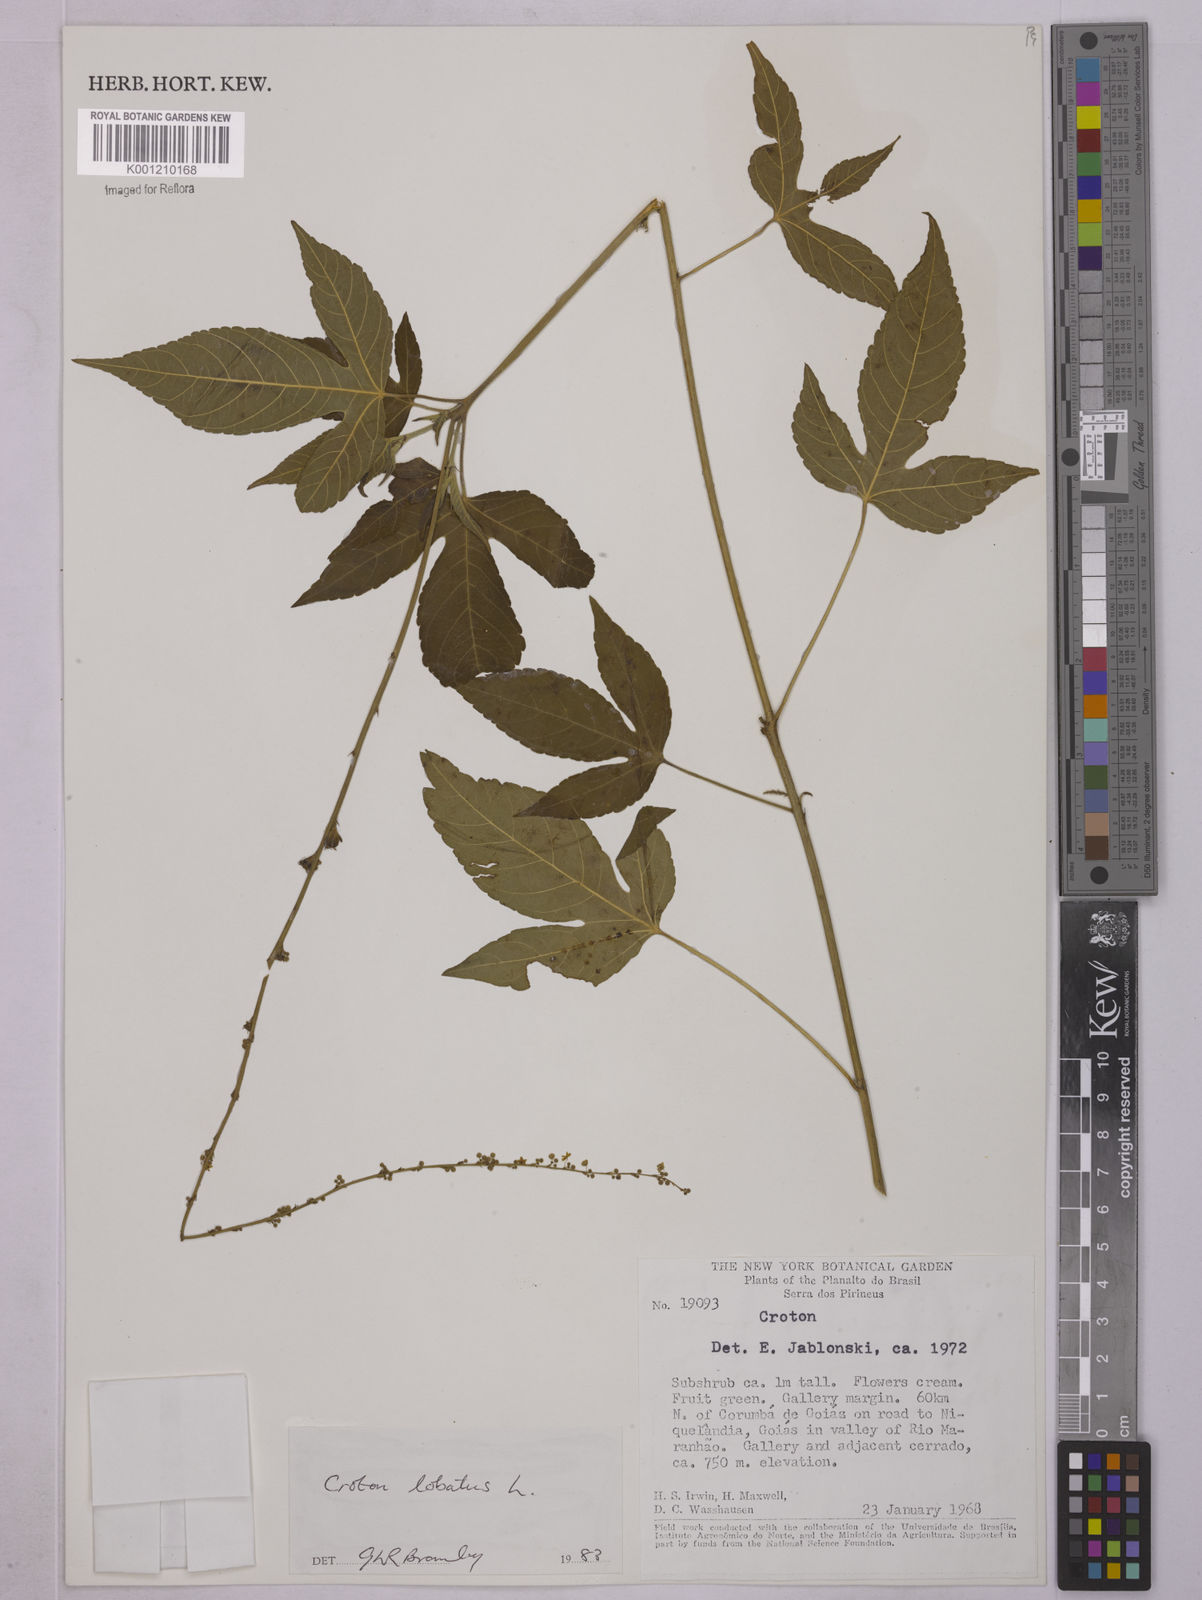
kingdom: Plantae
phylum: Tracheophyta
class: Magnoliopsida
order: Malpighiales
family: Euphorbiaceae
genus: Astraea
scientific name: Astraea lobata
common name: Lobed croton
